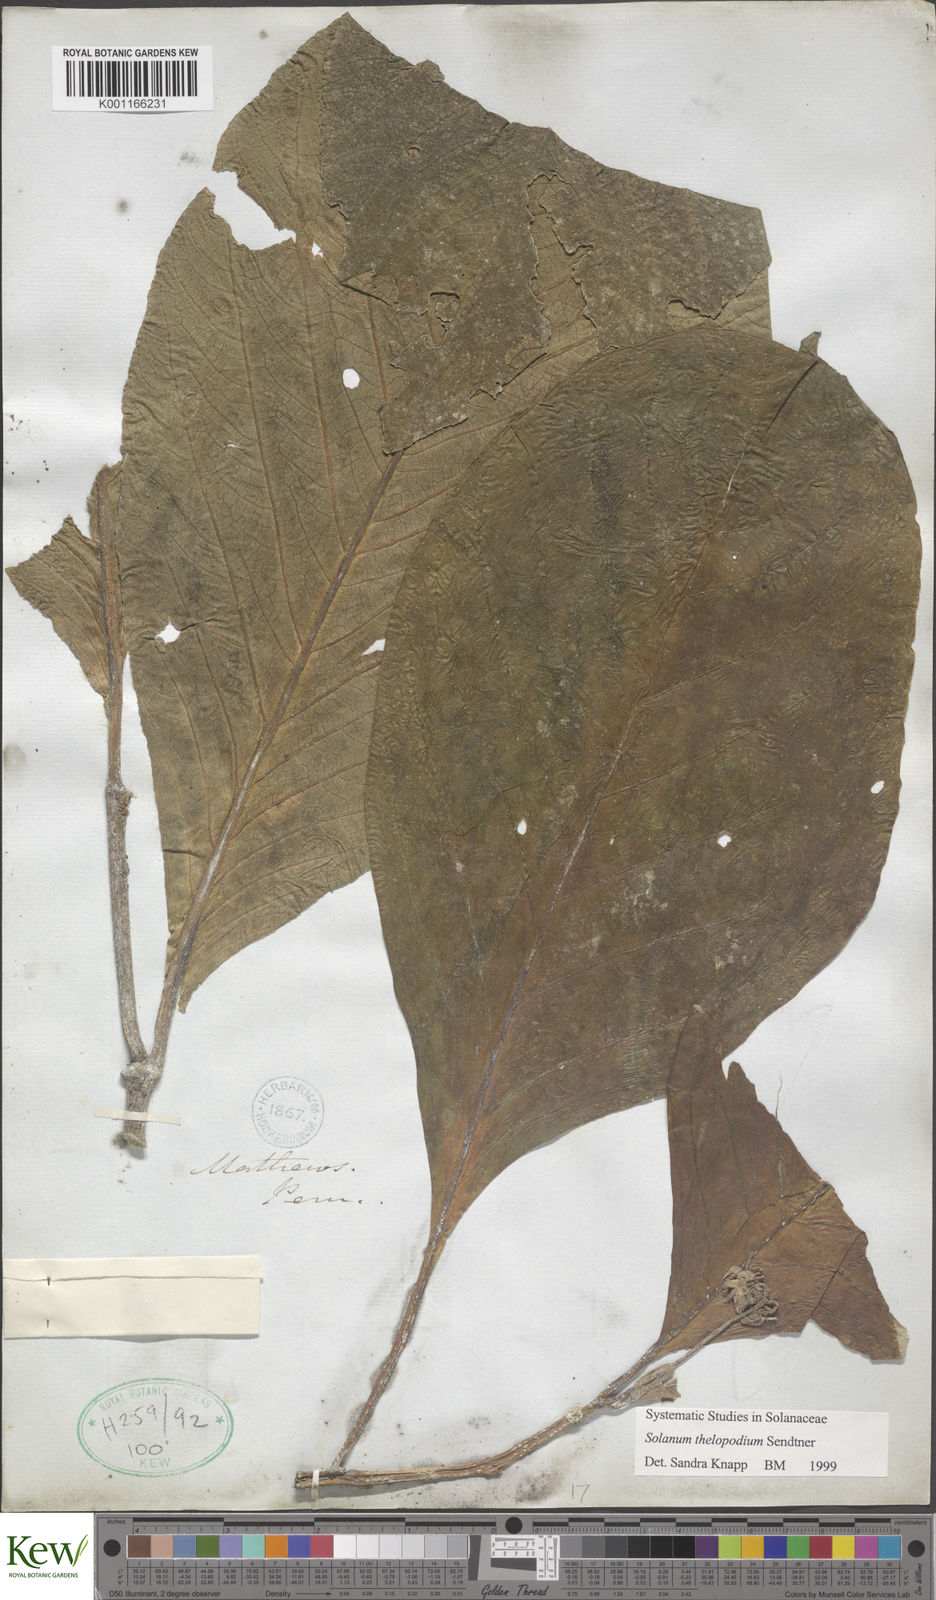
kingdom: Plantae
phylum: Tracheophyta
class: Magnoliopsida
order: Solanales
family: Solanaceae
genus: Solanum
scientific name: Solanum thelopodium
